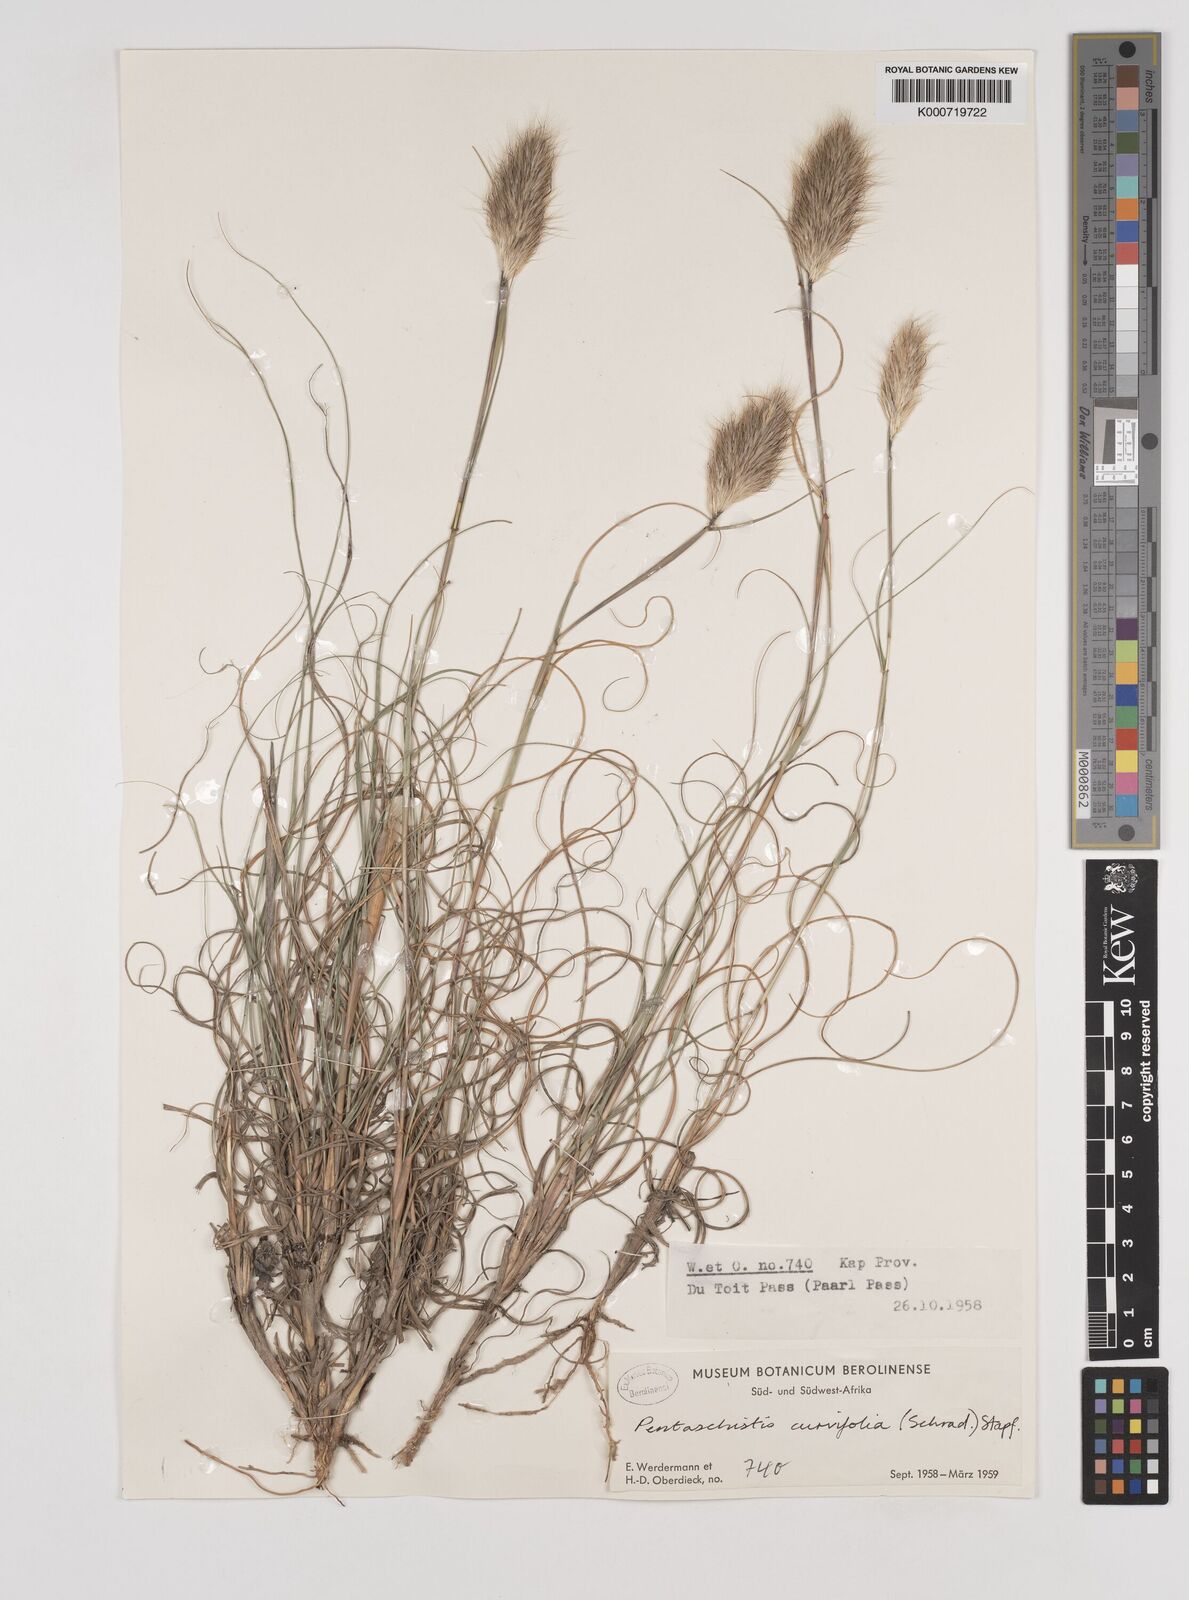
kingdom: Plantae
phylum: Tracheophyta
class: Liliopsida
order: Poales
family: Poaceae
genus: Pentameris
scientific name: Pentameris curvifolia
